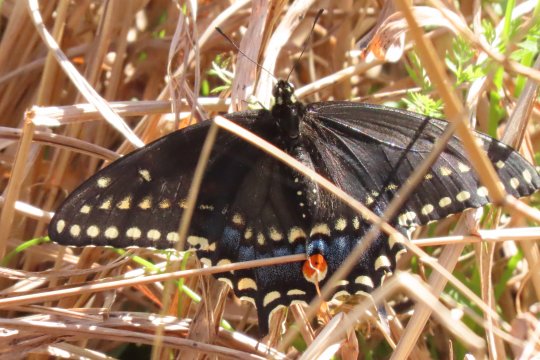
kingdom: Animalia
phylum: Arthropoda
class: Insecta
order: Lepidoptera
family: Papilionidae
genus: Papilio
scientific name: Papilio polyxenes
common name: Black Swallowtail
